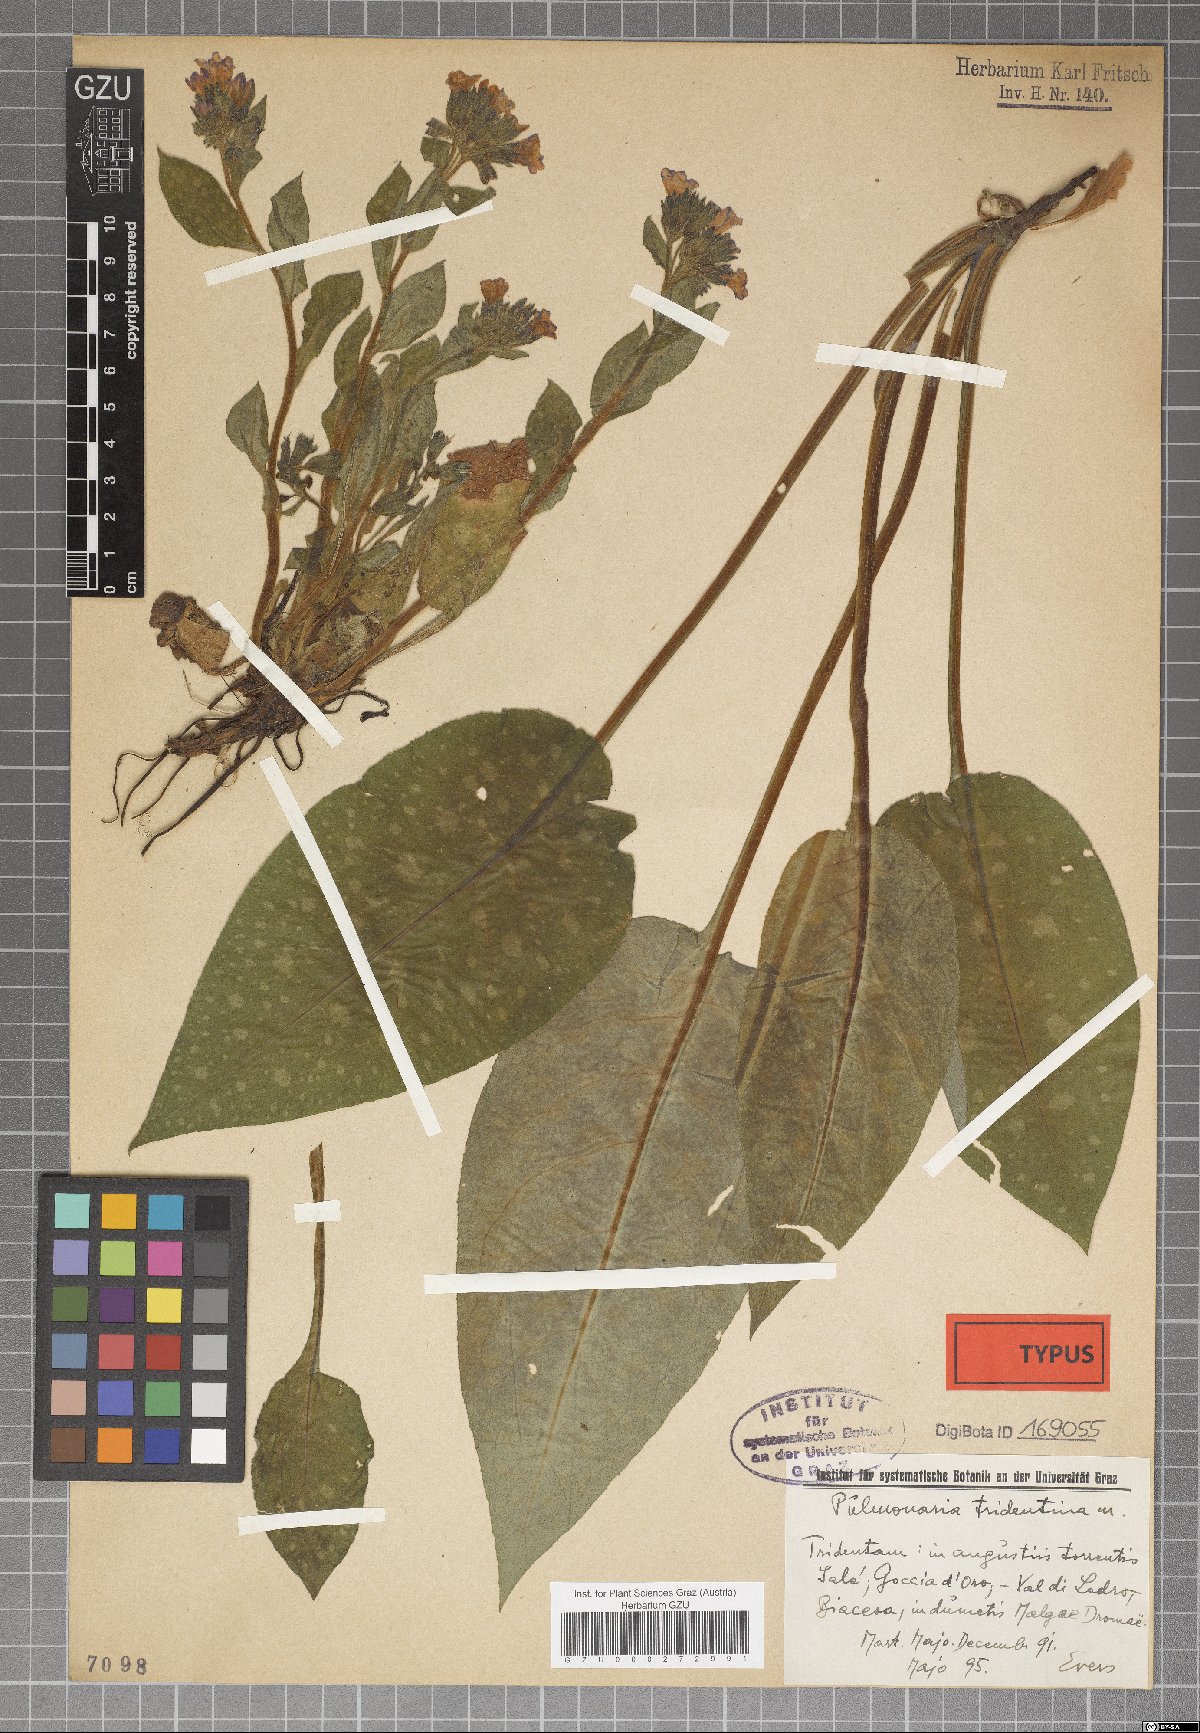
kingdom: Plantae
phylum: Tracheophyta
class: Magnoliopsida
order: Boraginales
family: Boraginaceae
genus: Pulmonaria
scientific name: Pulmonaria officinalis
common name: Lungwort
